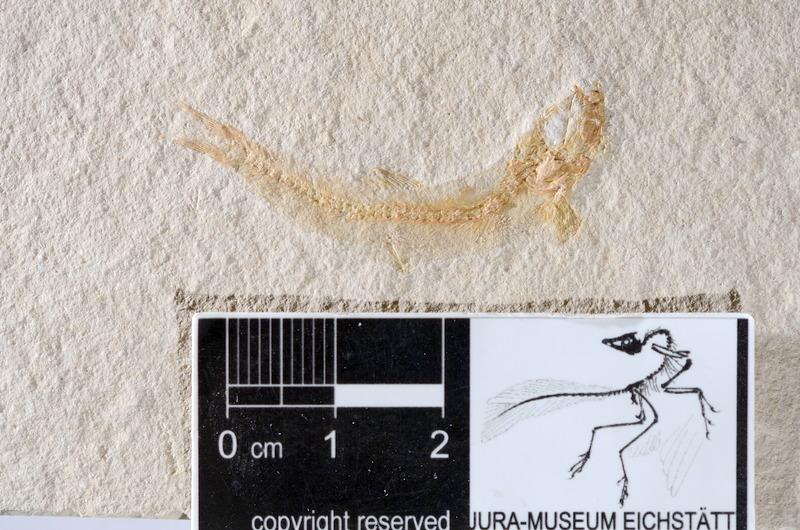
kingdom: Animalia
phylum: Chordata
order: Salmoniformes
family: Orthogonikleithridae
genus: Leptolepides
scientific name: Leptolepides sprattiformis
